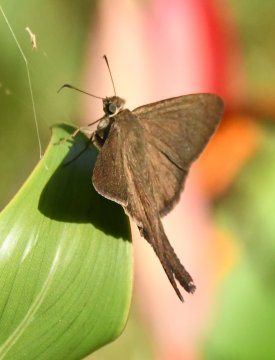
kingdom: Animalia
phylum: Arthropoda
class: Insecta
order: Lepidoptera
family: Hesperiidae
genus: Urbanus
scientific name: Urbanus simplicius
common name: Plain Longtail
